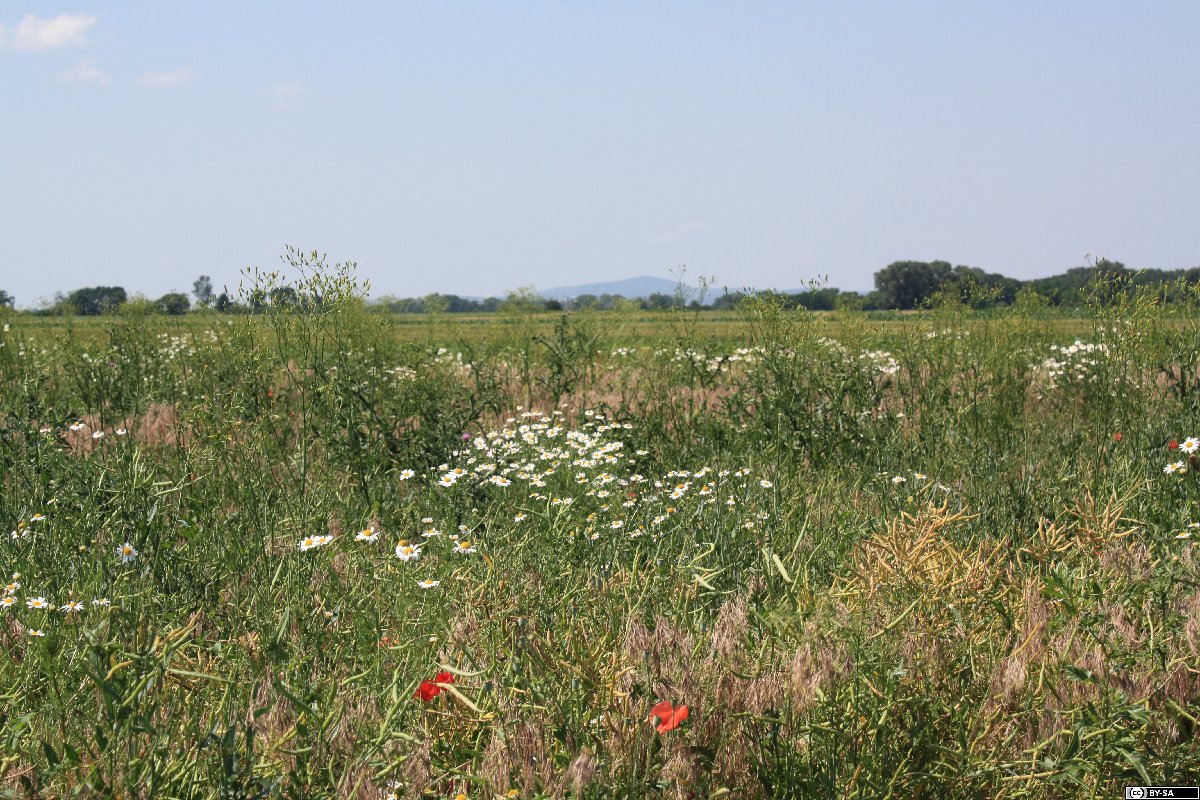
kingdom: Plantae
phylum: Tracheophyta
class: Magnoliopsida
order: Asterales
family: Asteraceae
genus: Crepis
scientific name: Crepis pulchra
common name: Hawk's-beard
